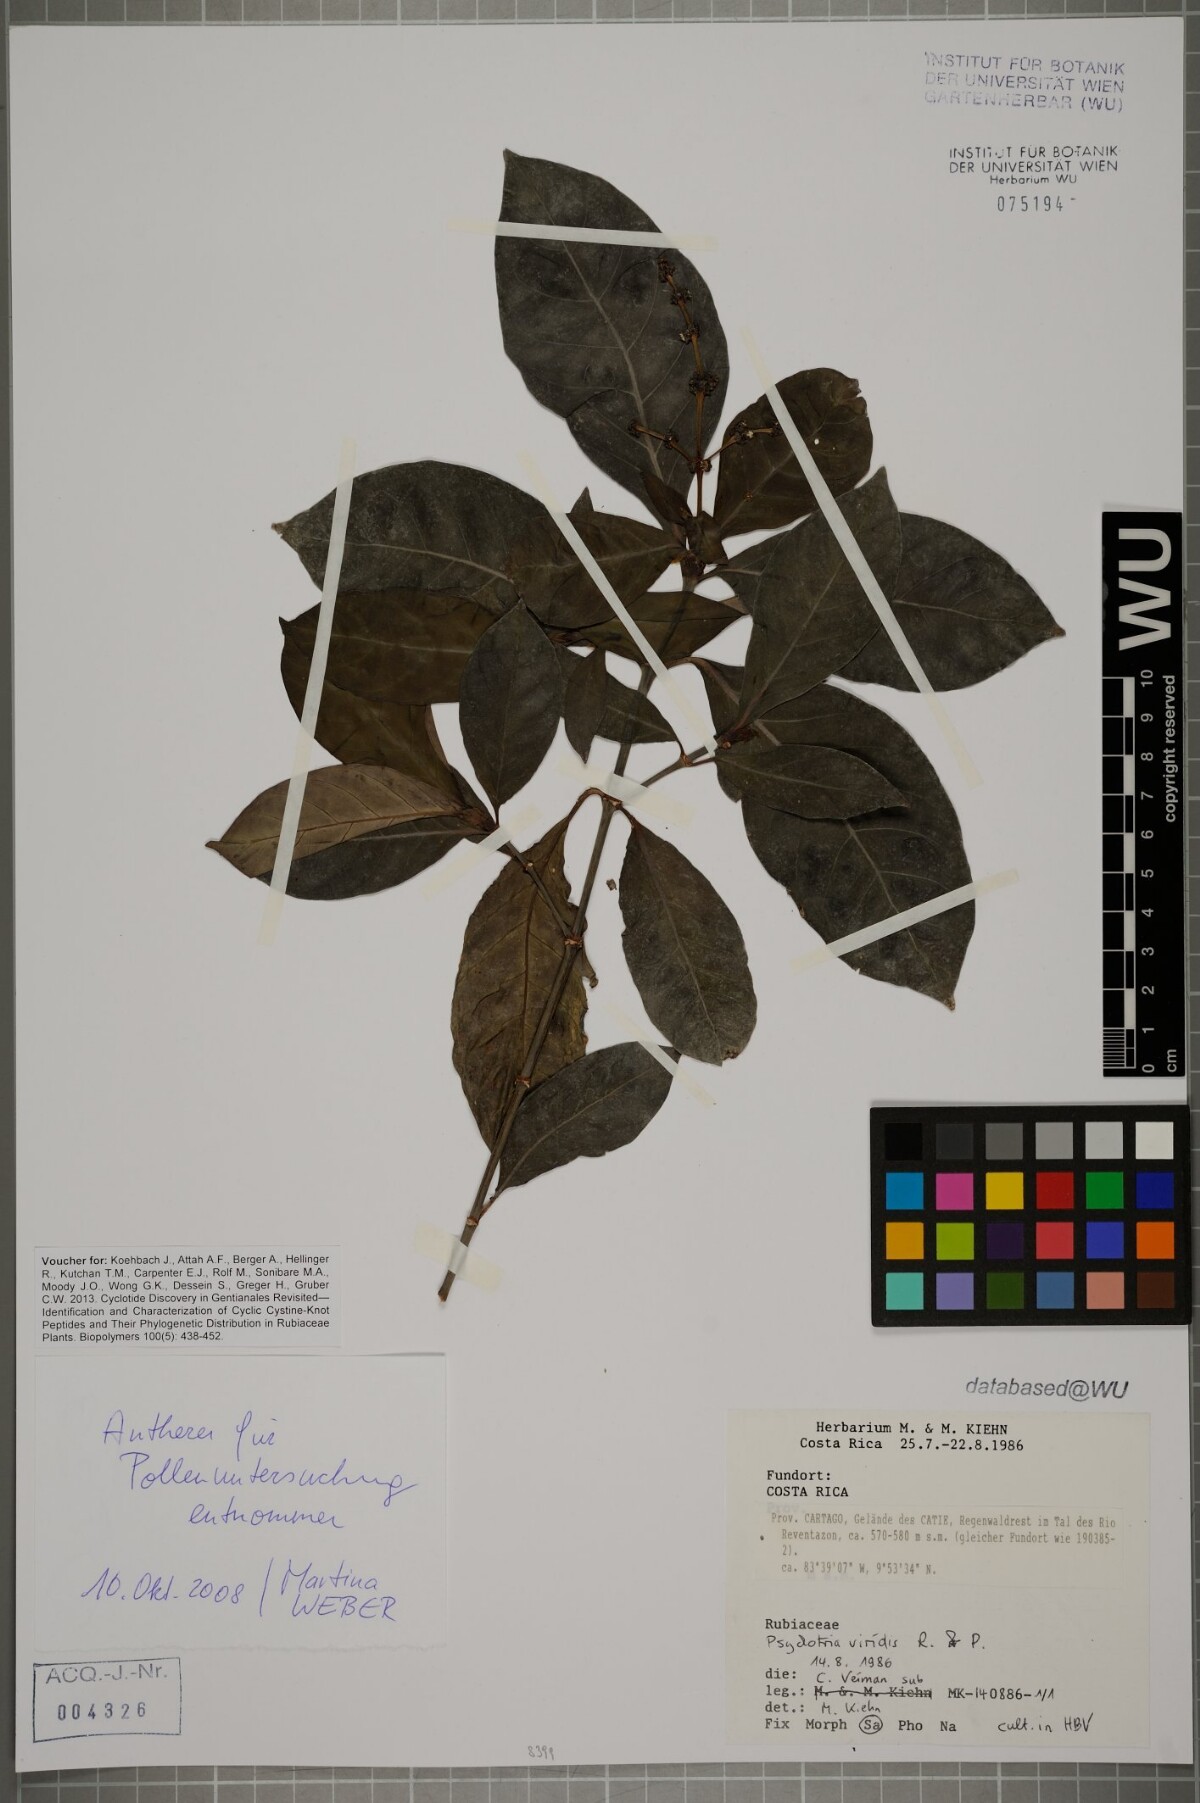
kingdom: Plantae
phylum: Tracheophyta
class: Magnoliopsida
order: Gentianales
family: Rubiaceae
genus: Psychotria
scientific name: Psychotria viridis
